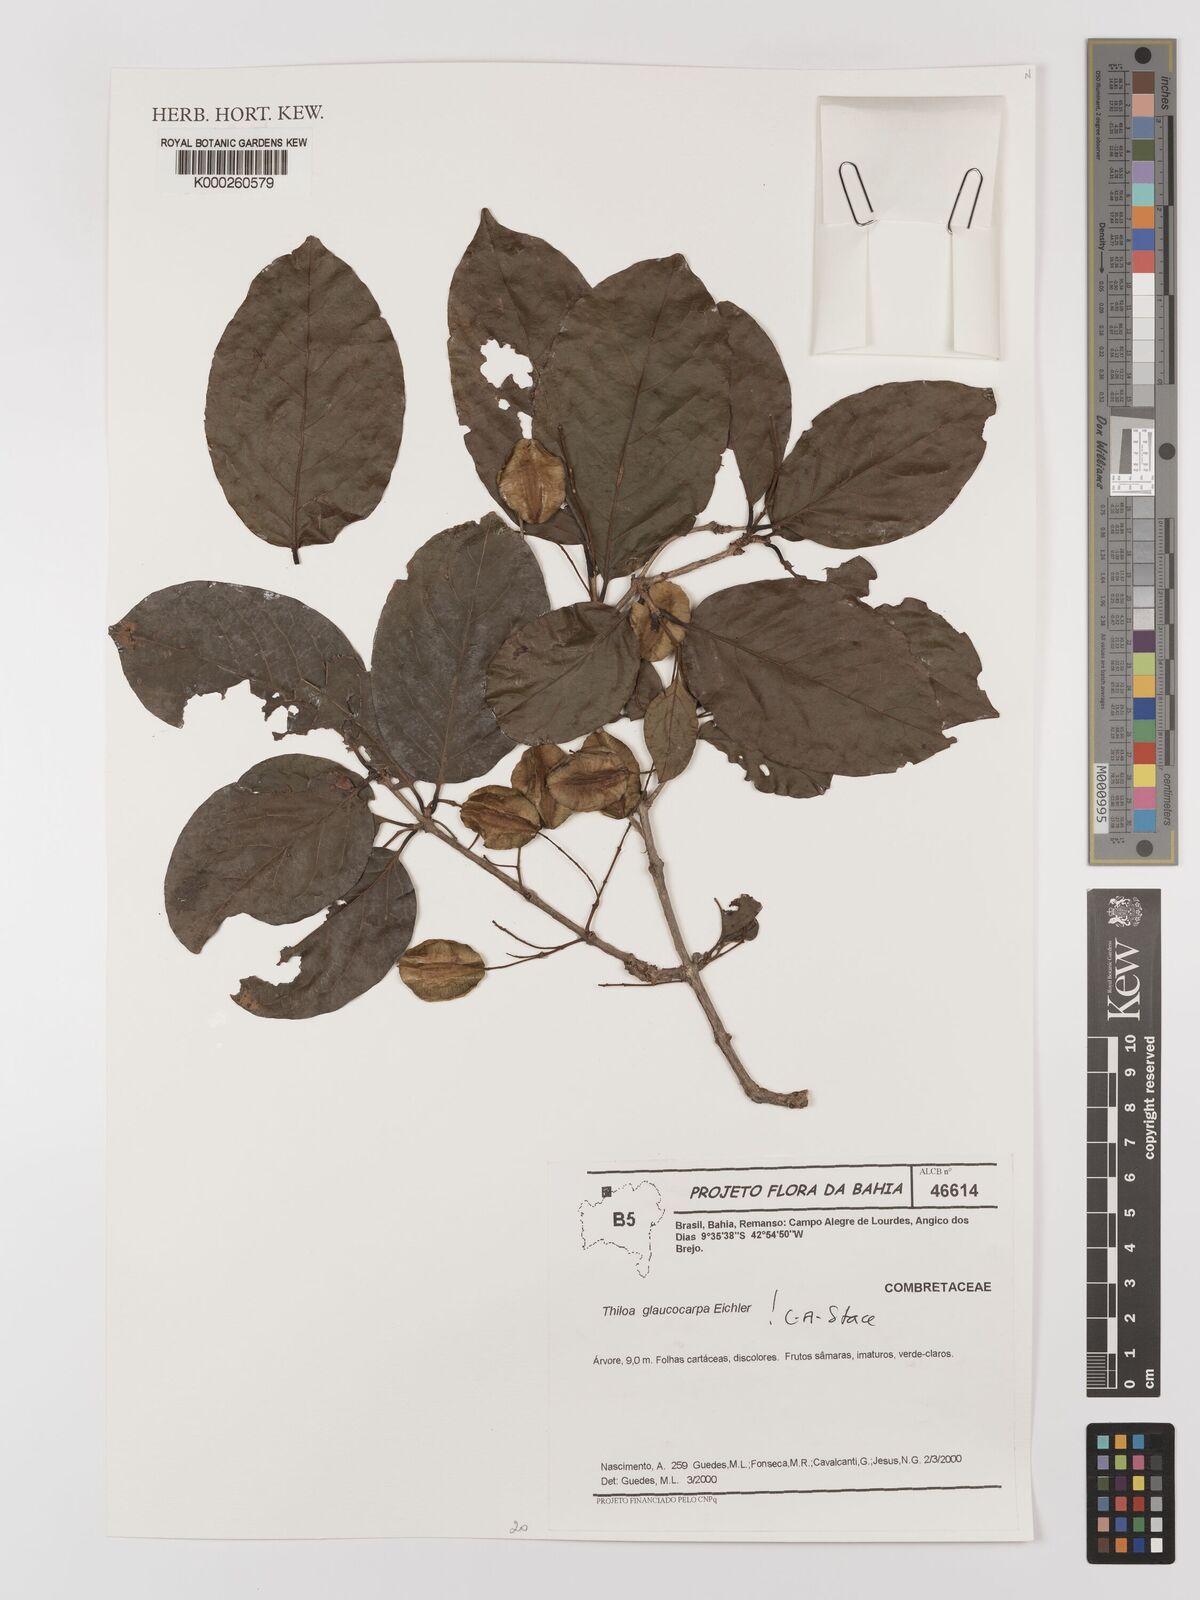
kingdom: Plantae
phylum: Tracheophyta
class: Magnoliopsida
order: Myrtales
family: Combretaceae
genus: Combretum
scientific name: Combretum glaucocarpum
